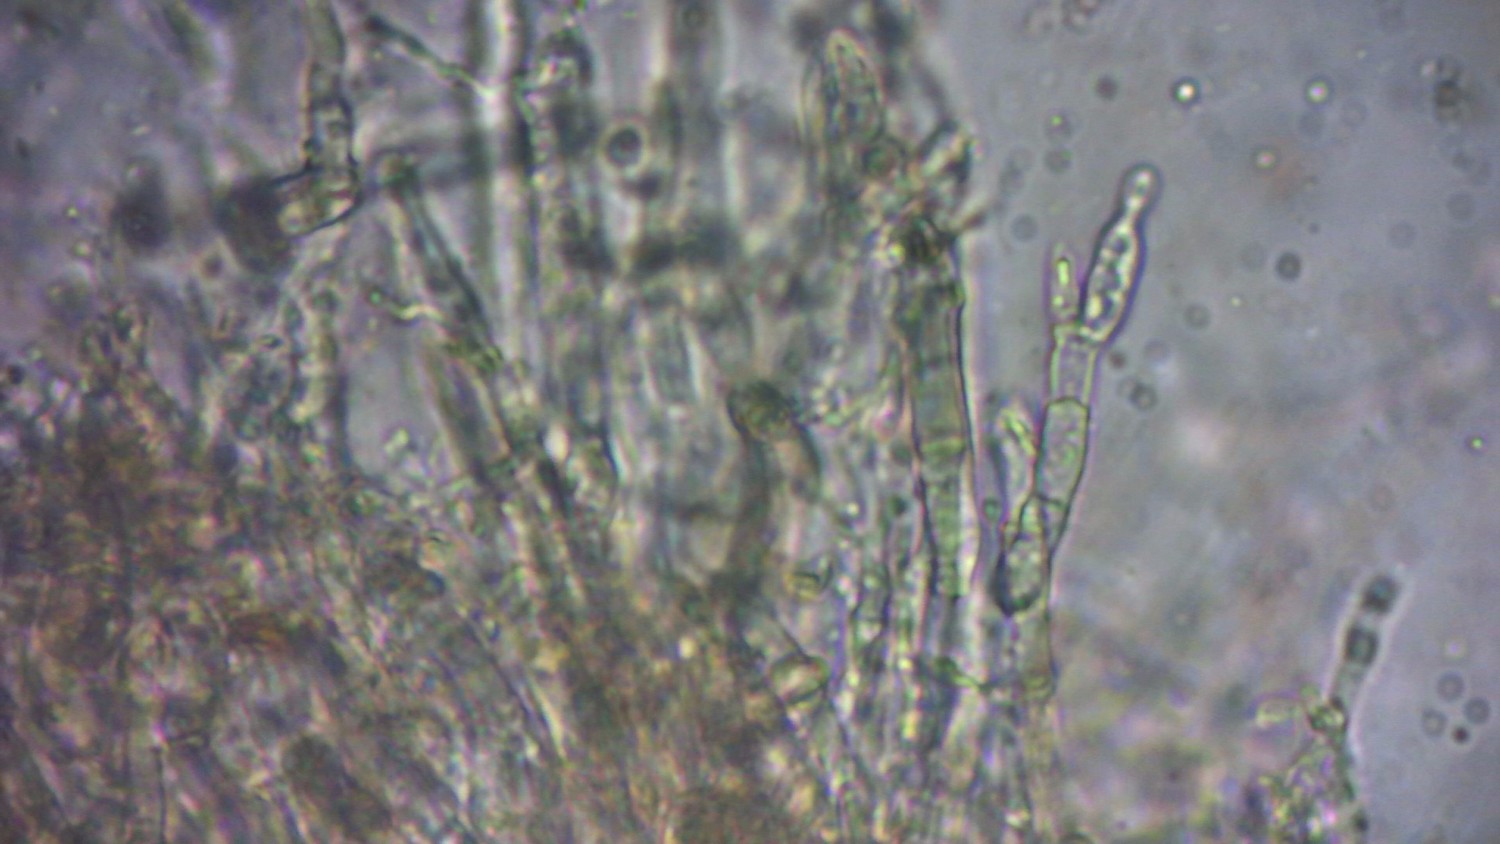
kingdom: Fungi
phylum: Ascomycota
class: Sordariomycetes
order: Diaporthales
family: Gnomoniaceae
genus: Plagiostoma
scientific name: Plagiostoma populinum
